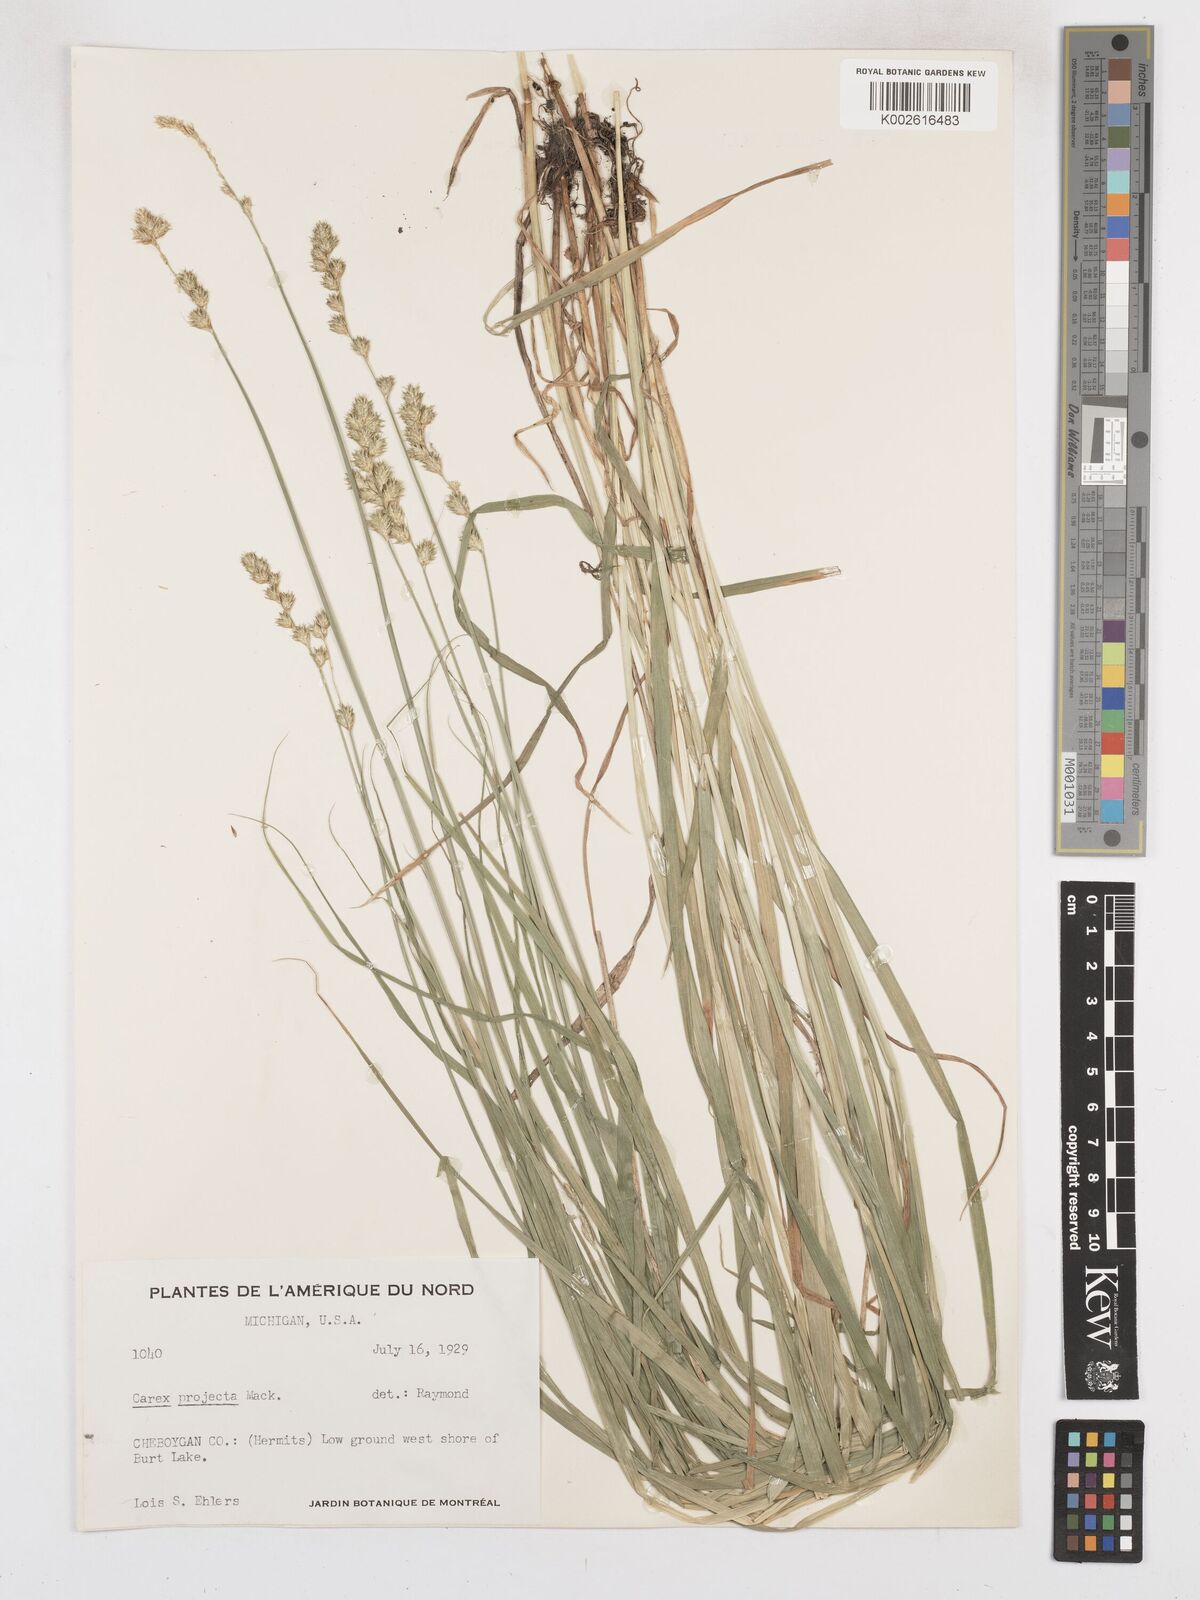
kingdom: Plantae
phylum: Tracheophyta
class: Liliopsida
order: Poales
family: Cyperaceae
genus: Carex
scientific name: Carex projecta
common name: Loose-headed oval sedge
